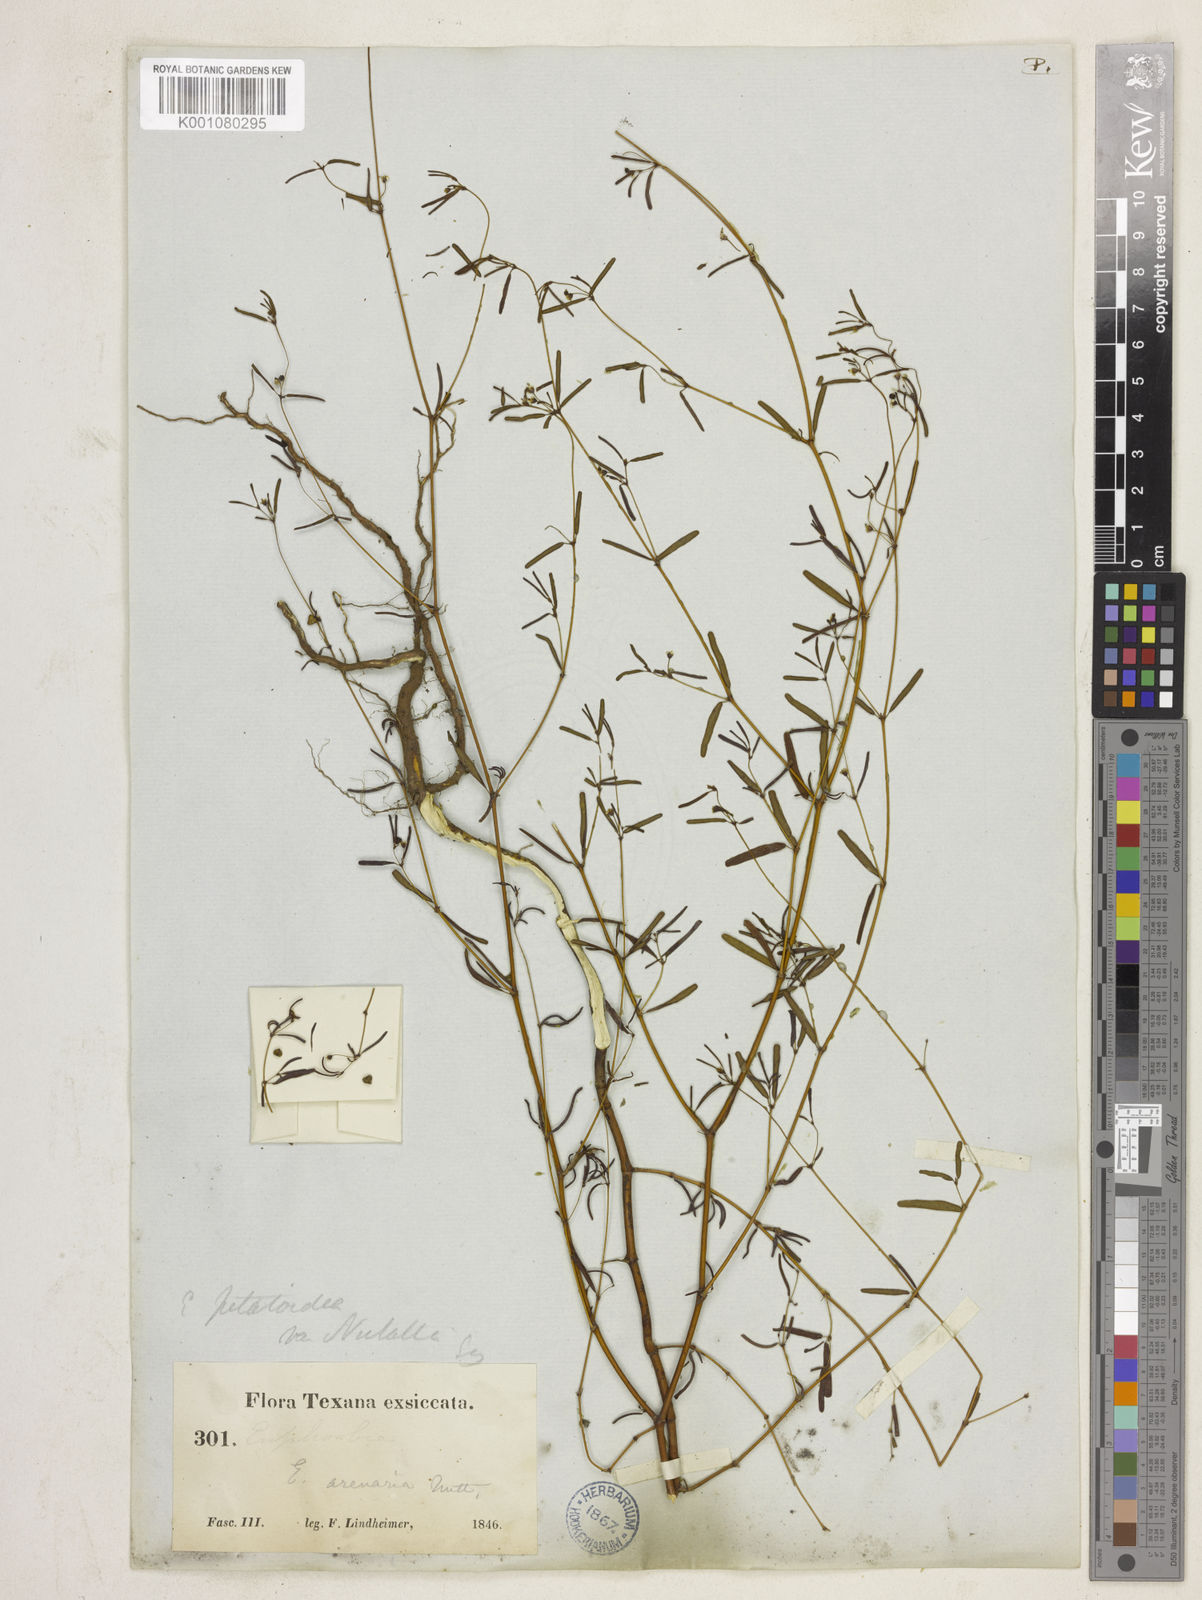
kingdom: Plantae
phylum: Tracheophyta
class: Magnoliopsida
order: Malpighiales
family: Euphorbiaceae
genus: Euphorbia
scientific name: Euphorbia missurica
